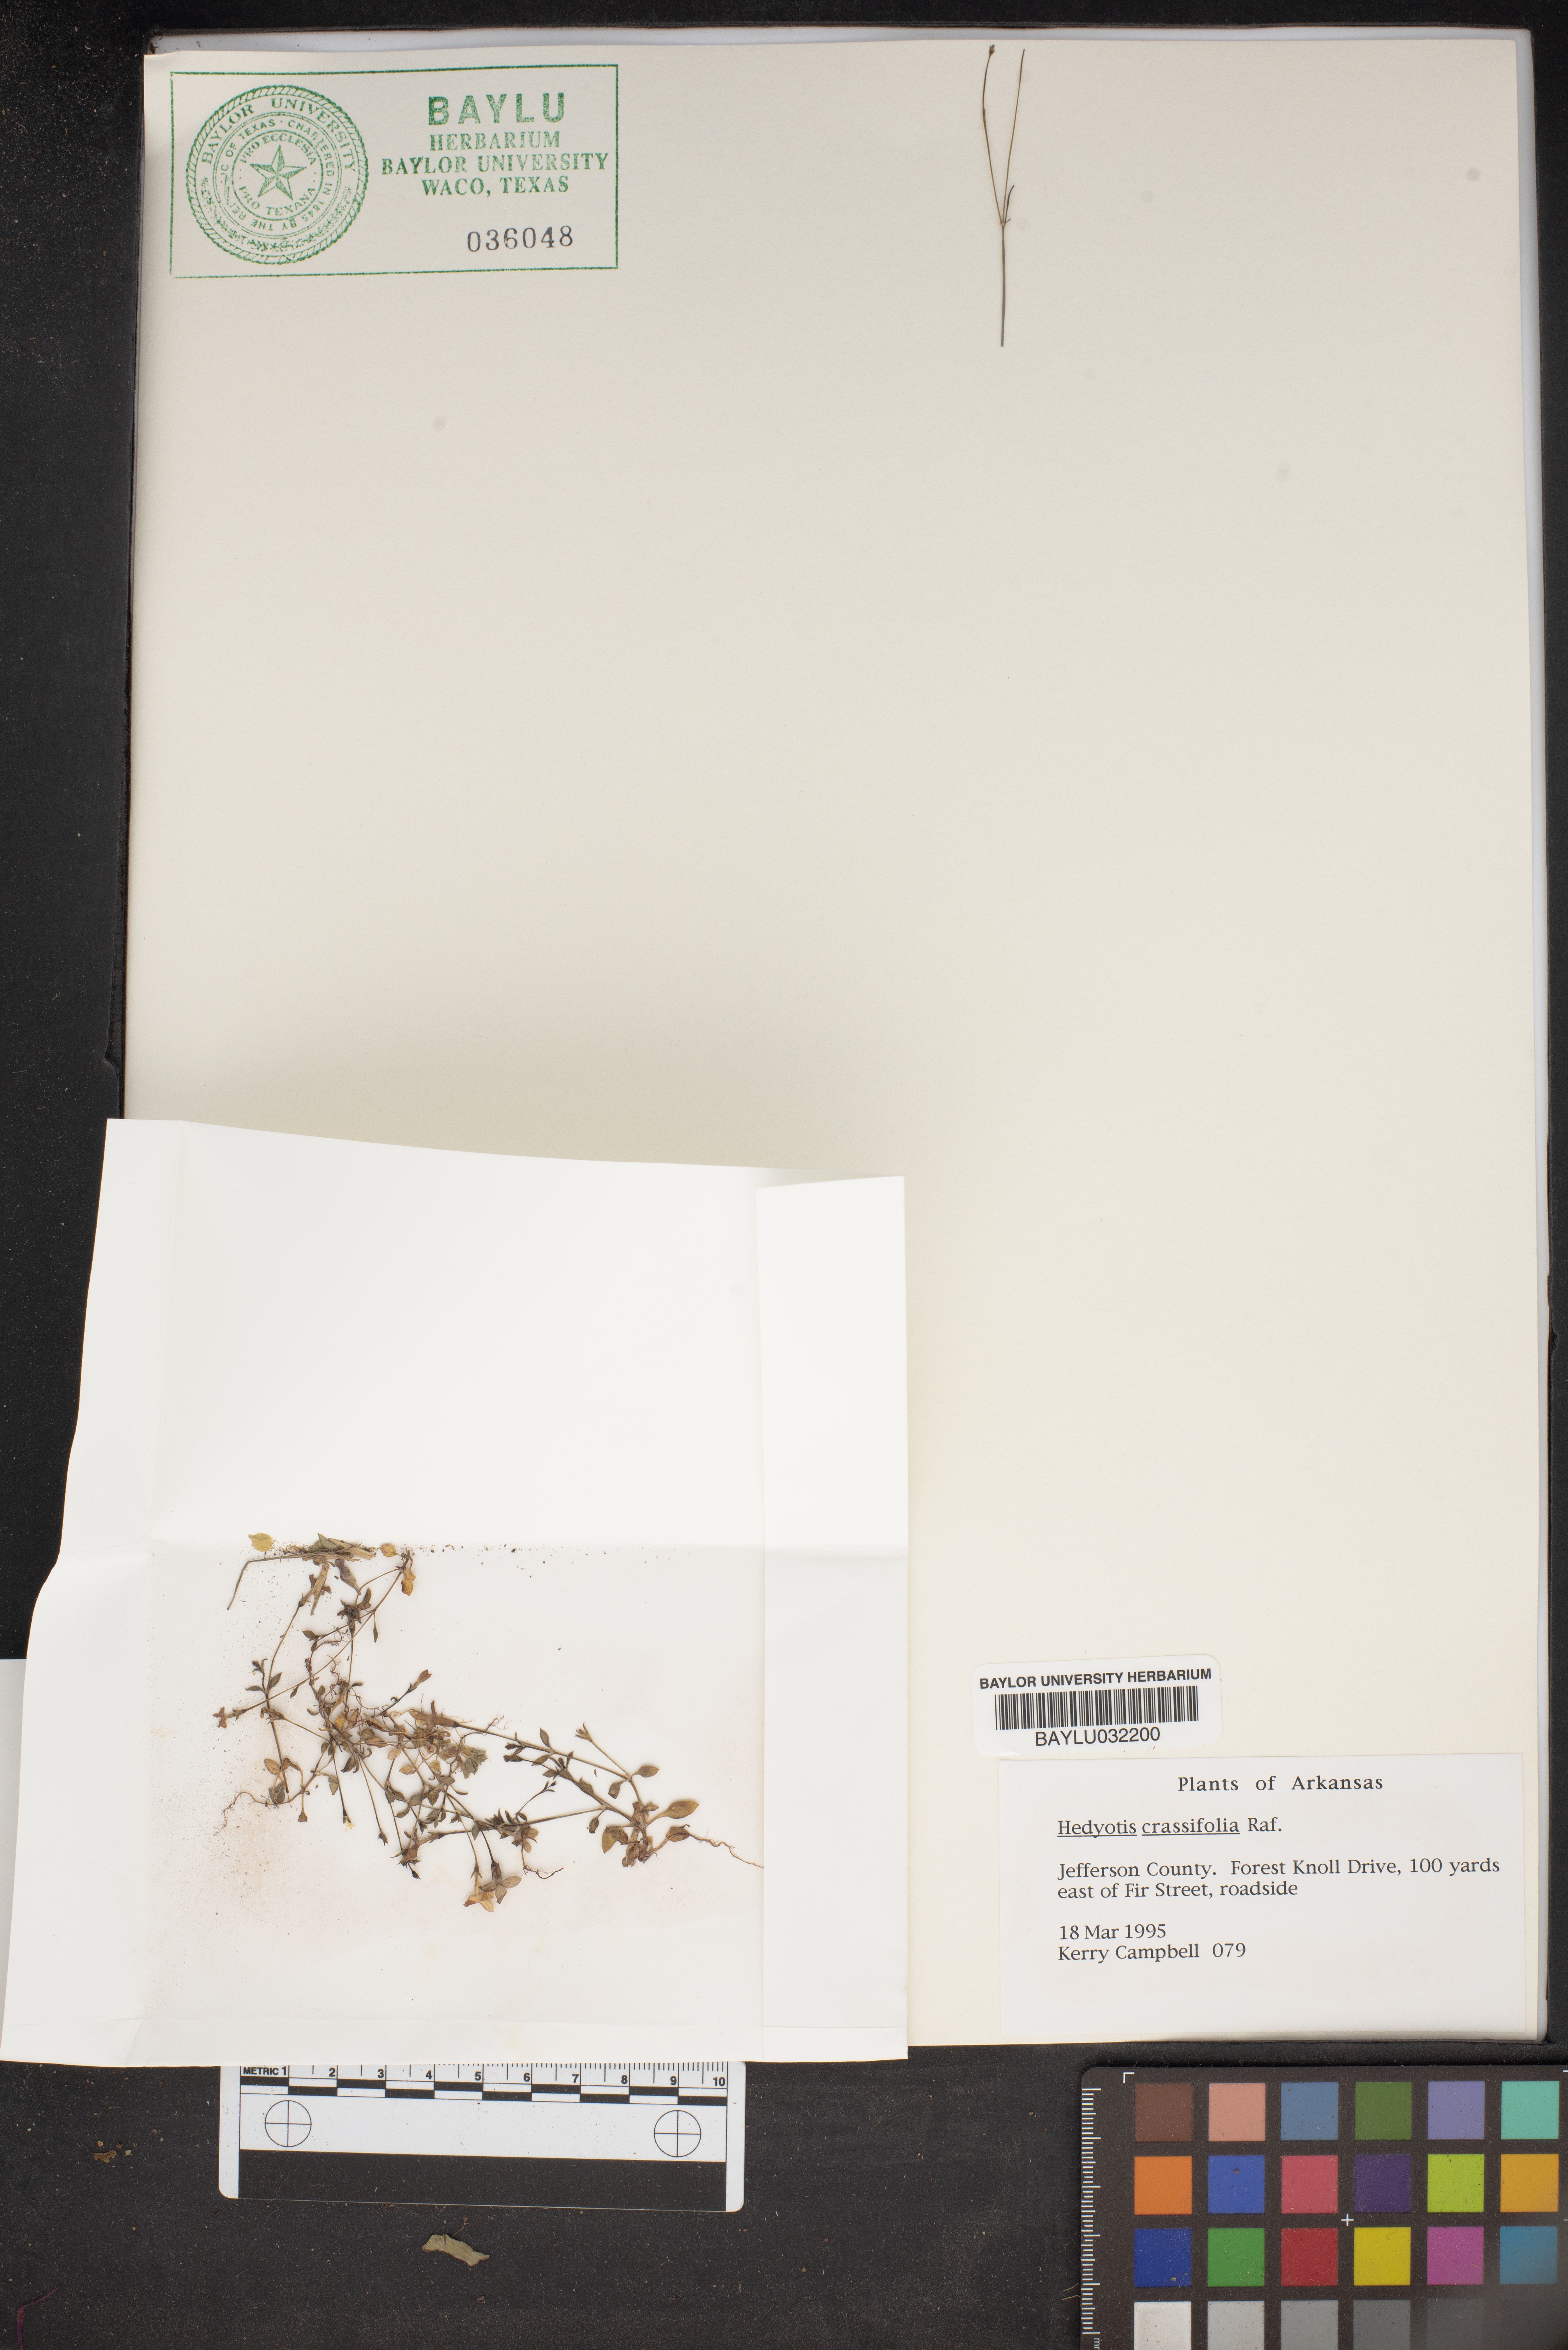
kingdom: Plantae
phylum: Tracheophyta
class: Magnoliopsida
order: Gentianales
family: Rubiaceae
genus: Houstonia
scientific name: Houstonia pusilla
